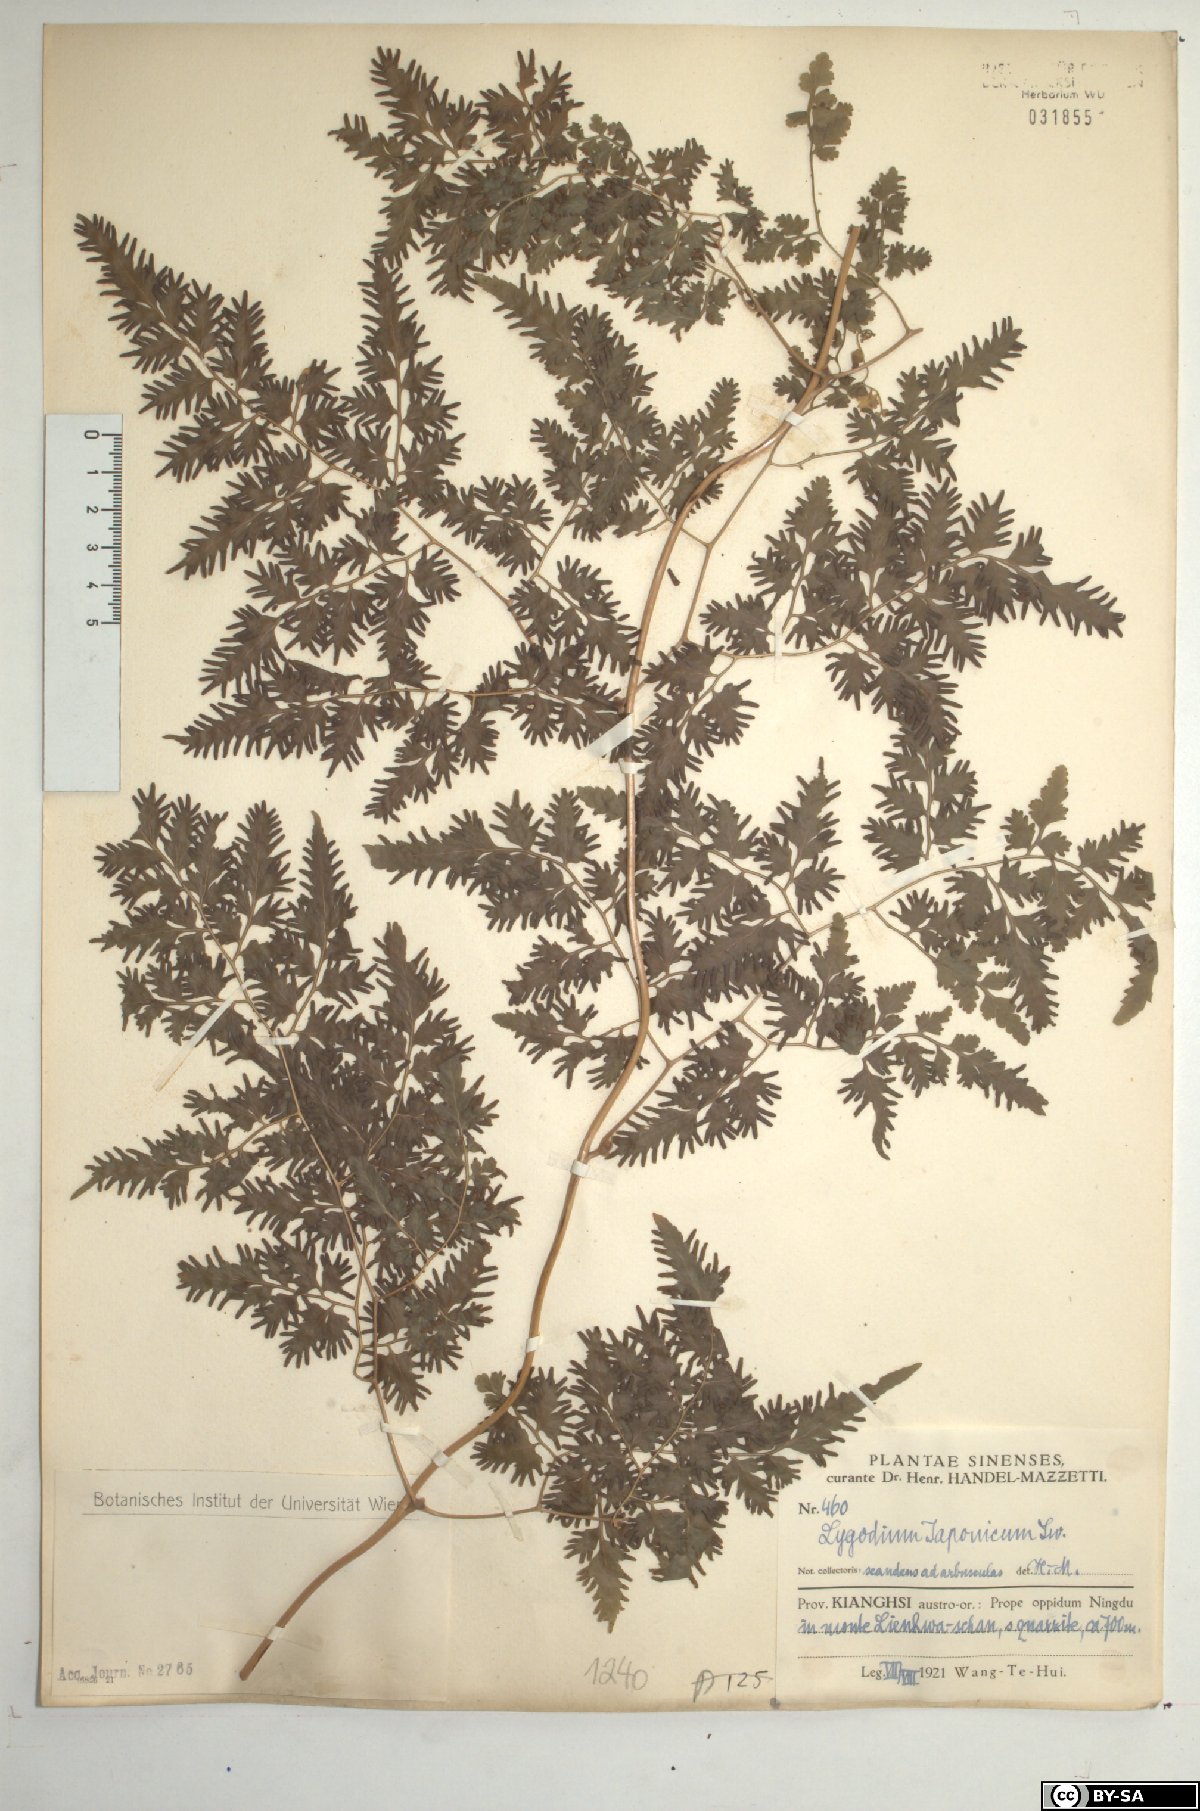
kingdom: Plantae
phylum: Tracheophyta
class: Polypodiopsida
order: Schizaeales
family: Lygodiaceae
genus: Lygodium
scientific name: Lygodium japonicum
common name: Japanese climbing fern
